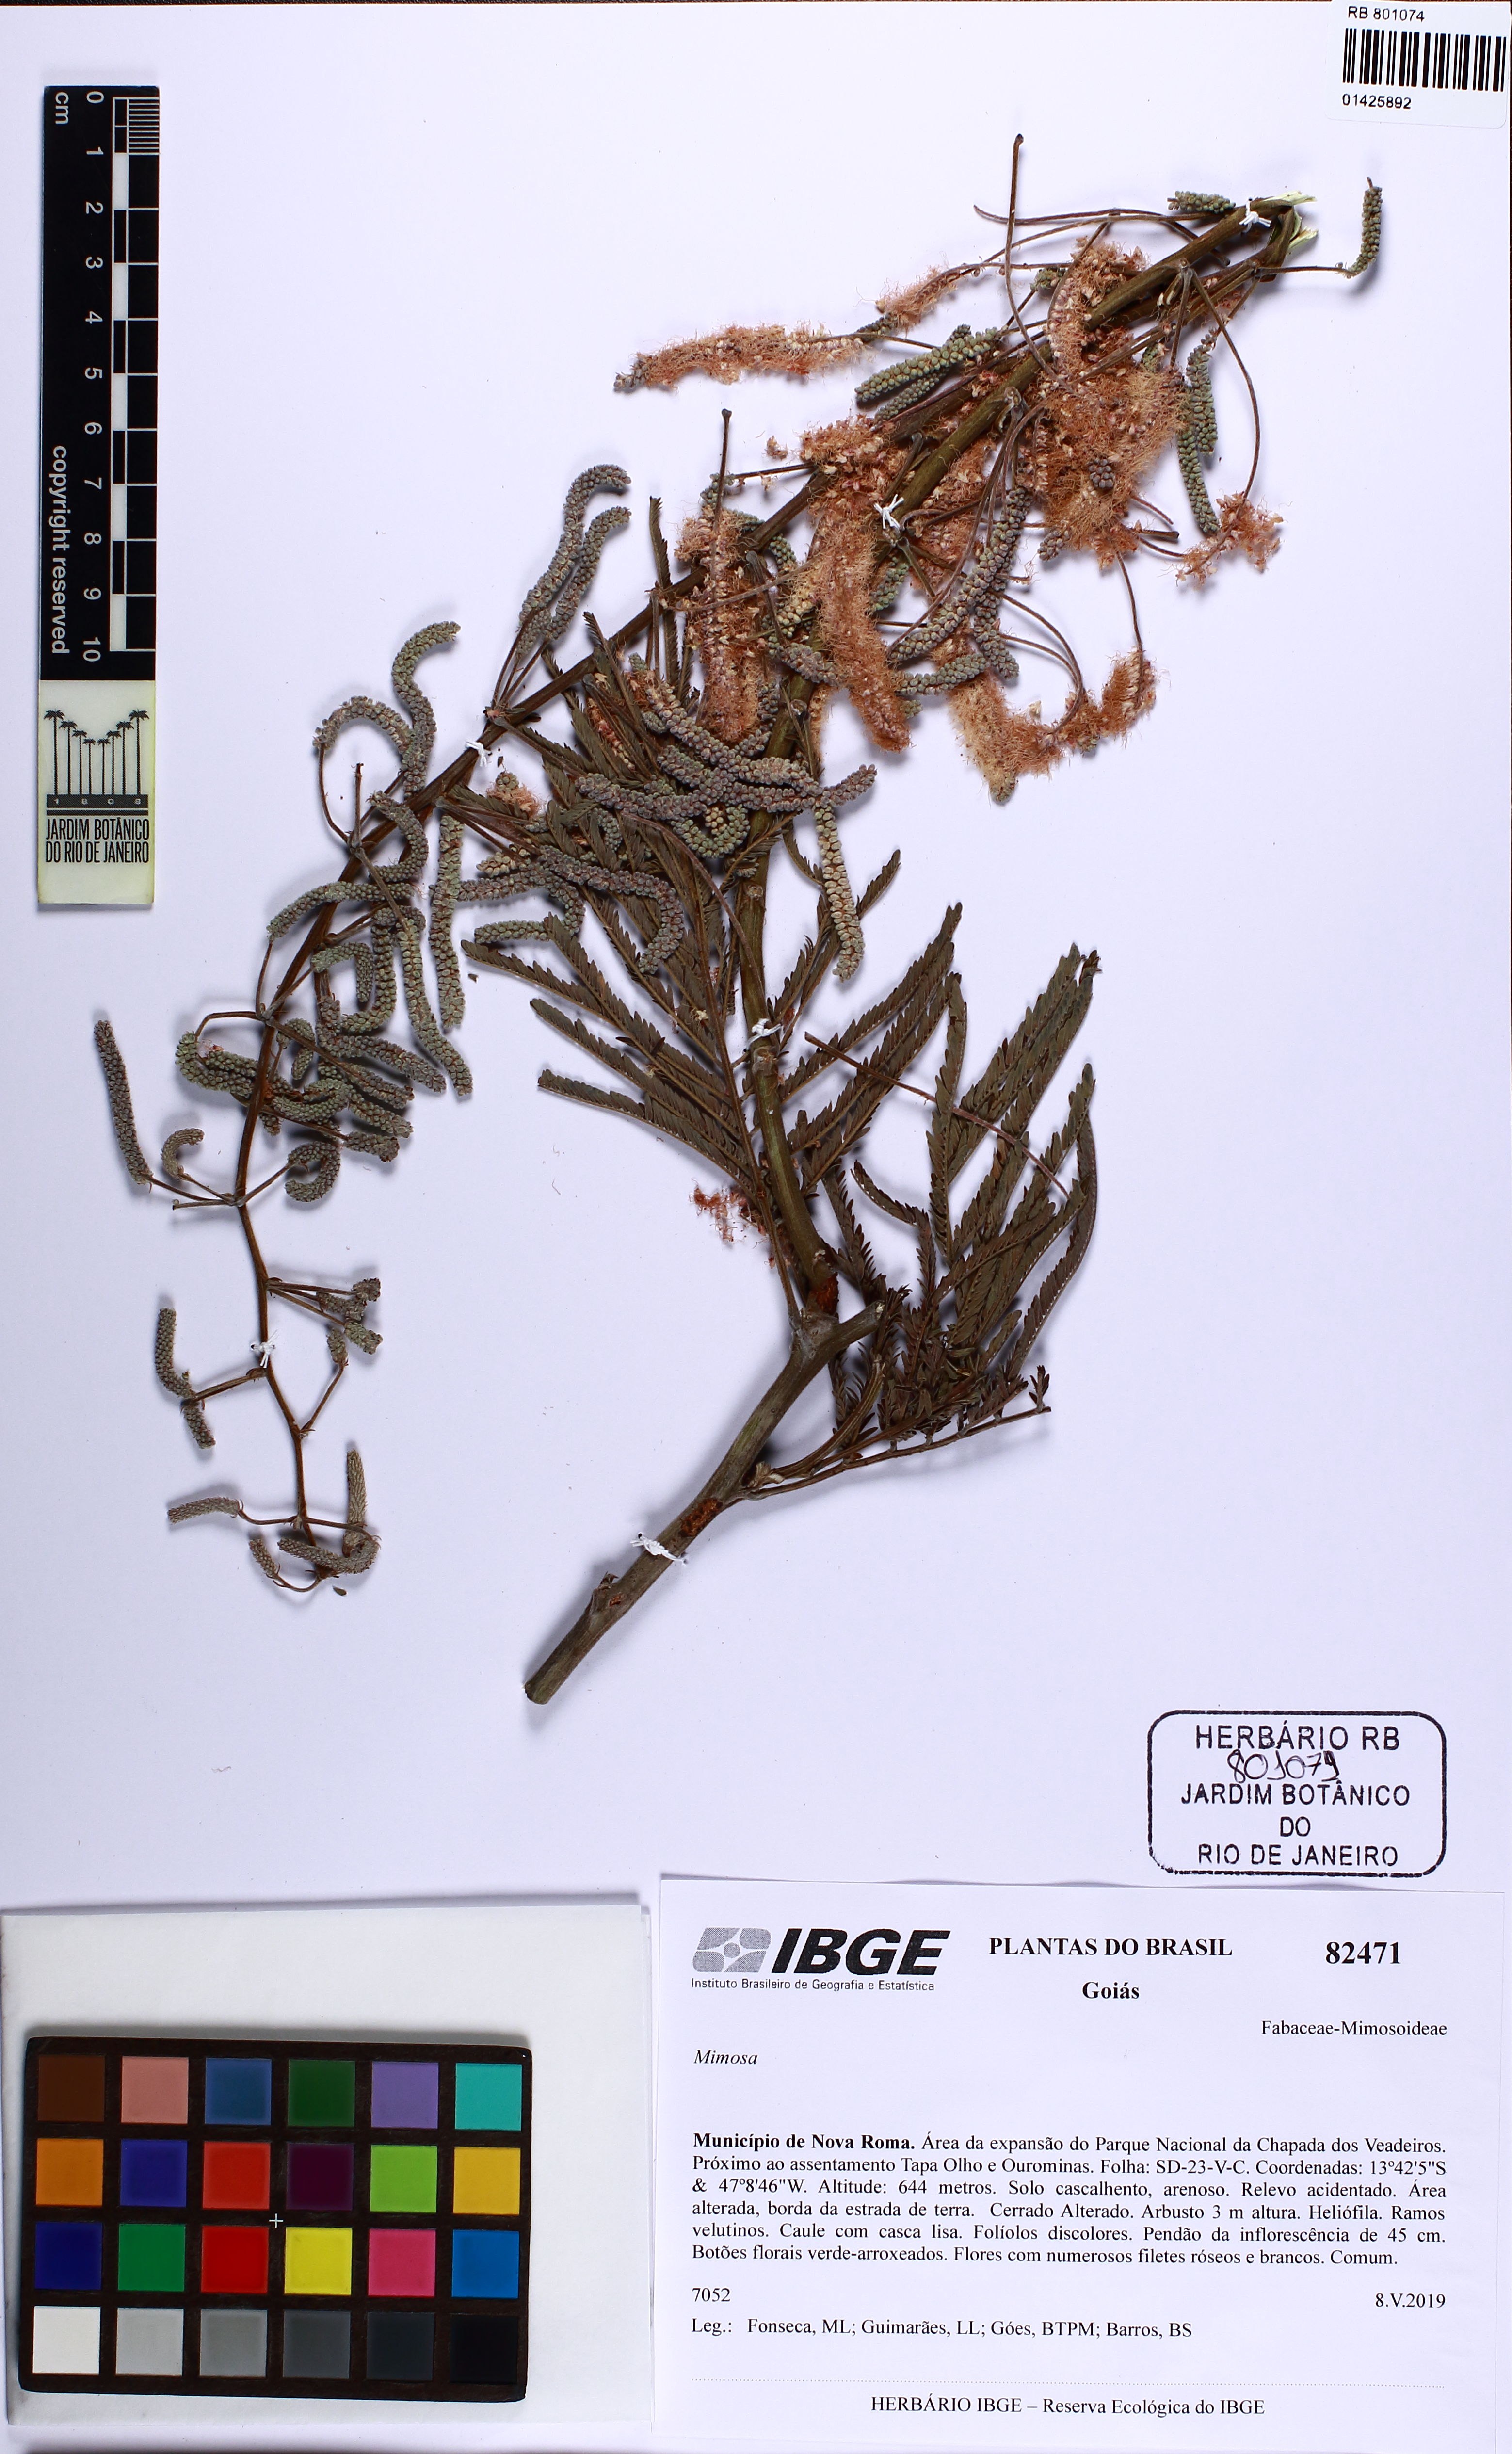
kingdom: Plantae
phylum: Tracheophyta
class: Magnoliopsida
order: Fabales
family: Fabaceae
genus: Mimosa
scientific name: Mimosa
